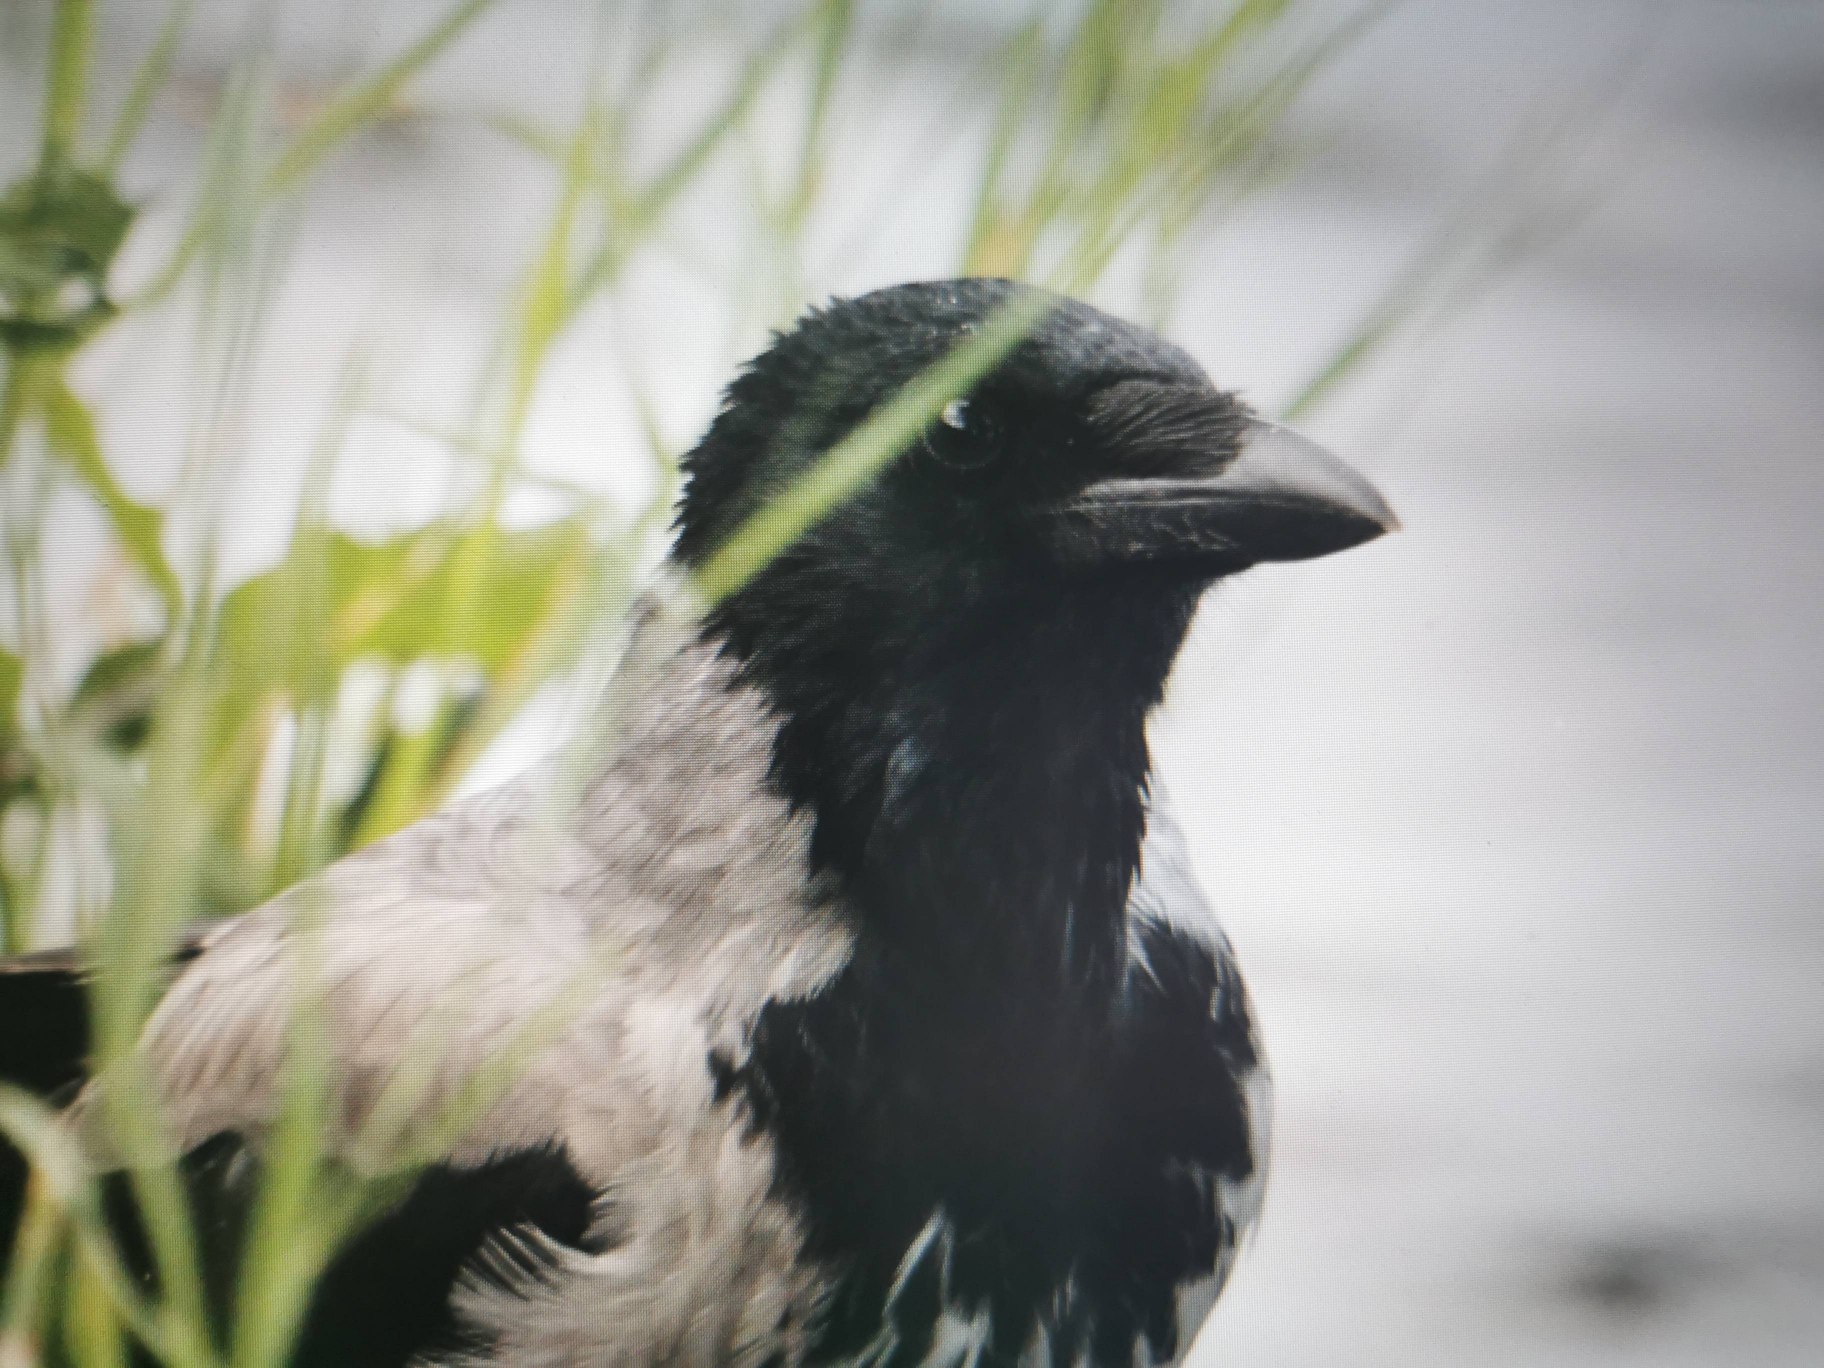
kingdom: Animalia
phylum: Chordata
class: Aves
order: Passeriformes
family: Corvidae
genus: Corvus
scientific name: Corvus cornix
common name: Gråkrage
